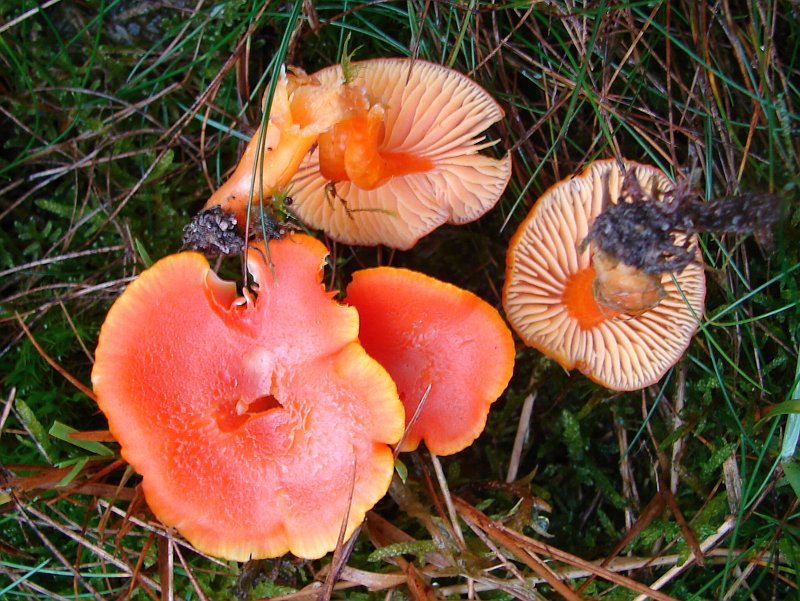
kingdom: Fungi
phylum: Basidiomycota
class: Agaricomycetes
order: Agaricales
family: Hygrophoraceae
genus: Hygrocybe
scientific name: Hygrocybe miniata
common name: mønje-vokshat
